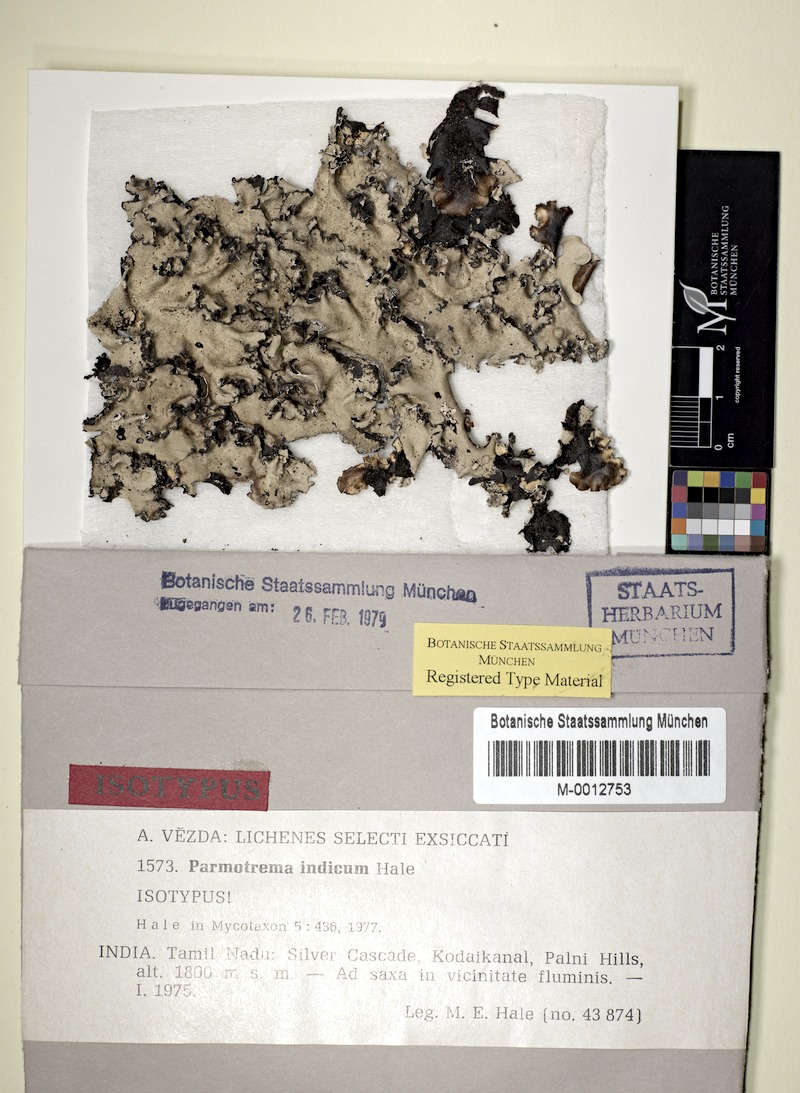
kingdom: Fungi
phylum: Ascomycota
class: Lecanoromycetes
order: Lecanorales
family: Parmeliaceae
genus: Parmotrema
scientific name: Parmotrema indicum
